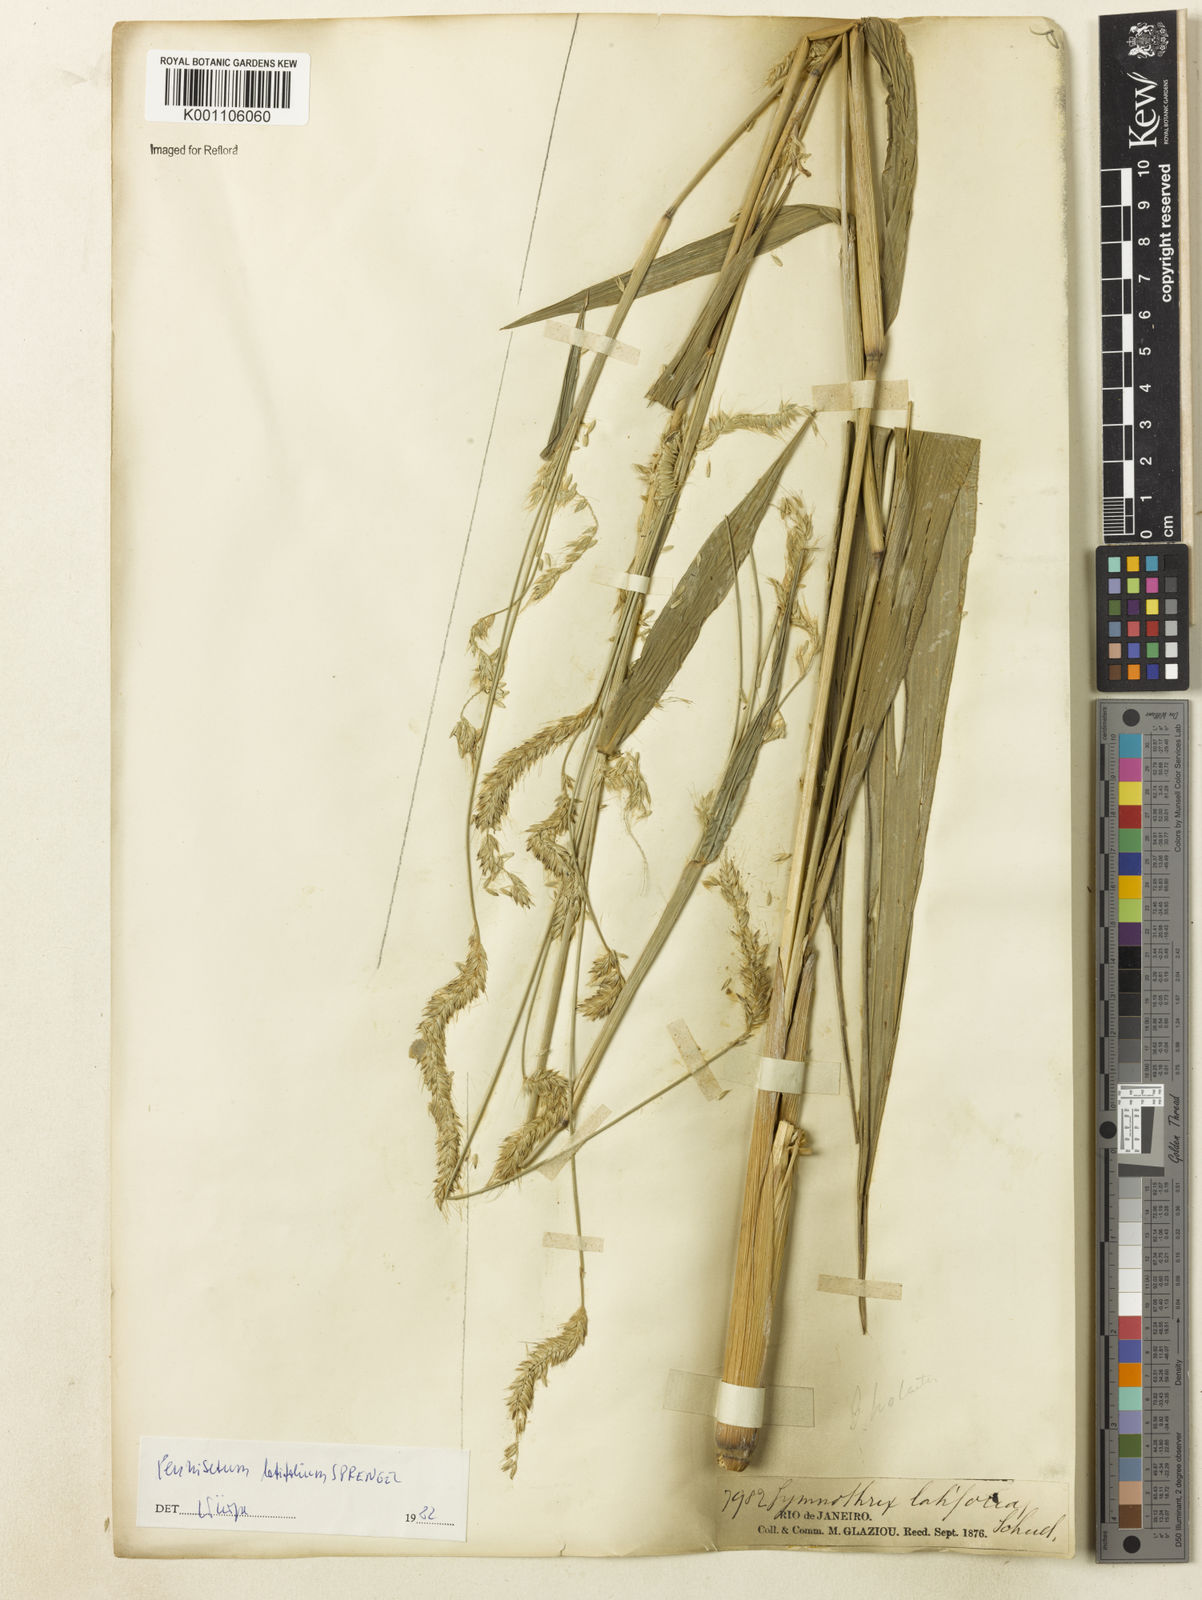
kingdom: Plantae
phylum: Tracheophyta
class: Liliopsida
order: Poales
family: Poaceae
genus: Cenchrus
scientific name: Cenchrus latifolius
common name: Sandbur
